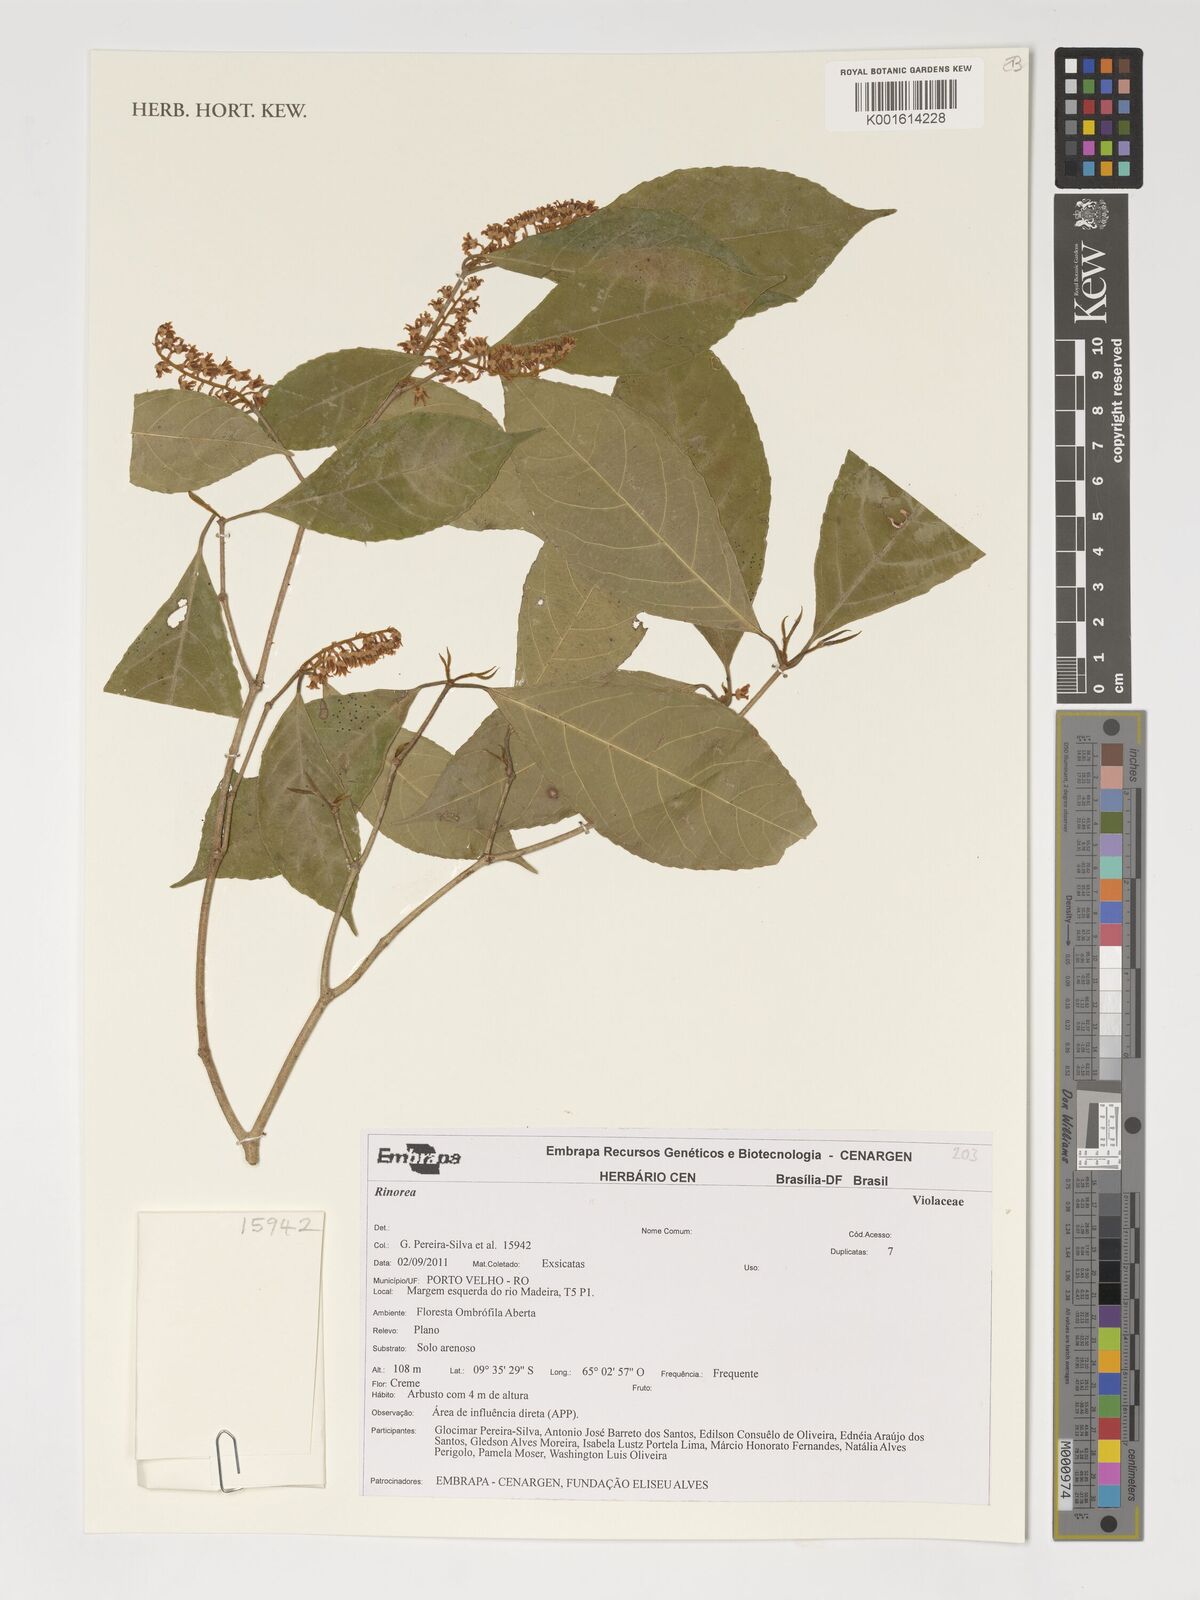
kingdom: Plantae
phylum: Tracheophyta
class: Magnoliopsida
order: Malpighiales
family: Violaceae
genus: Rinorea
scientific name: Rinorea
